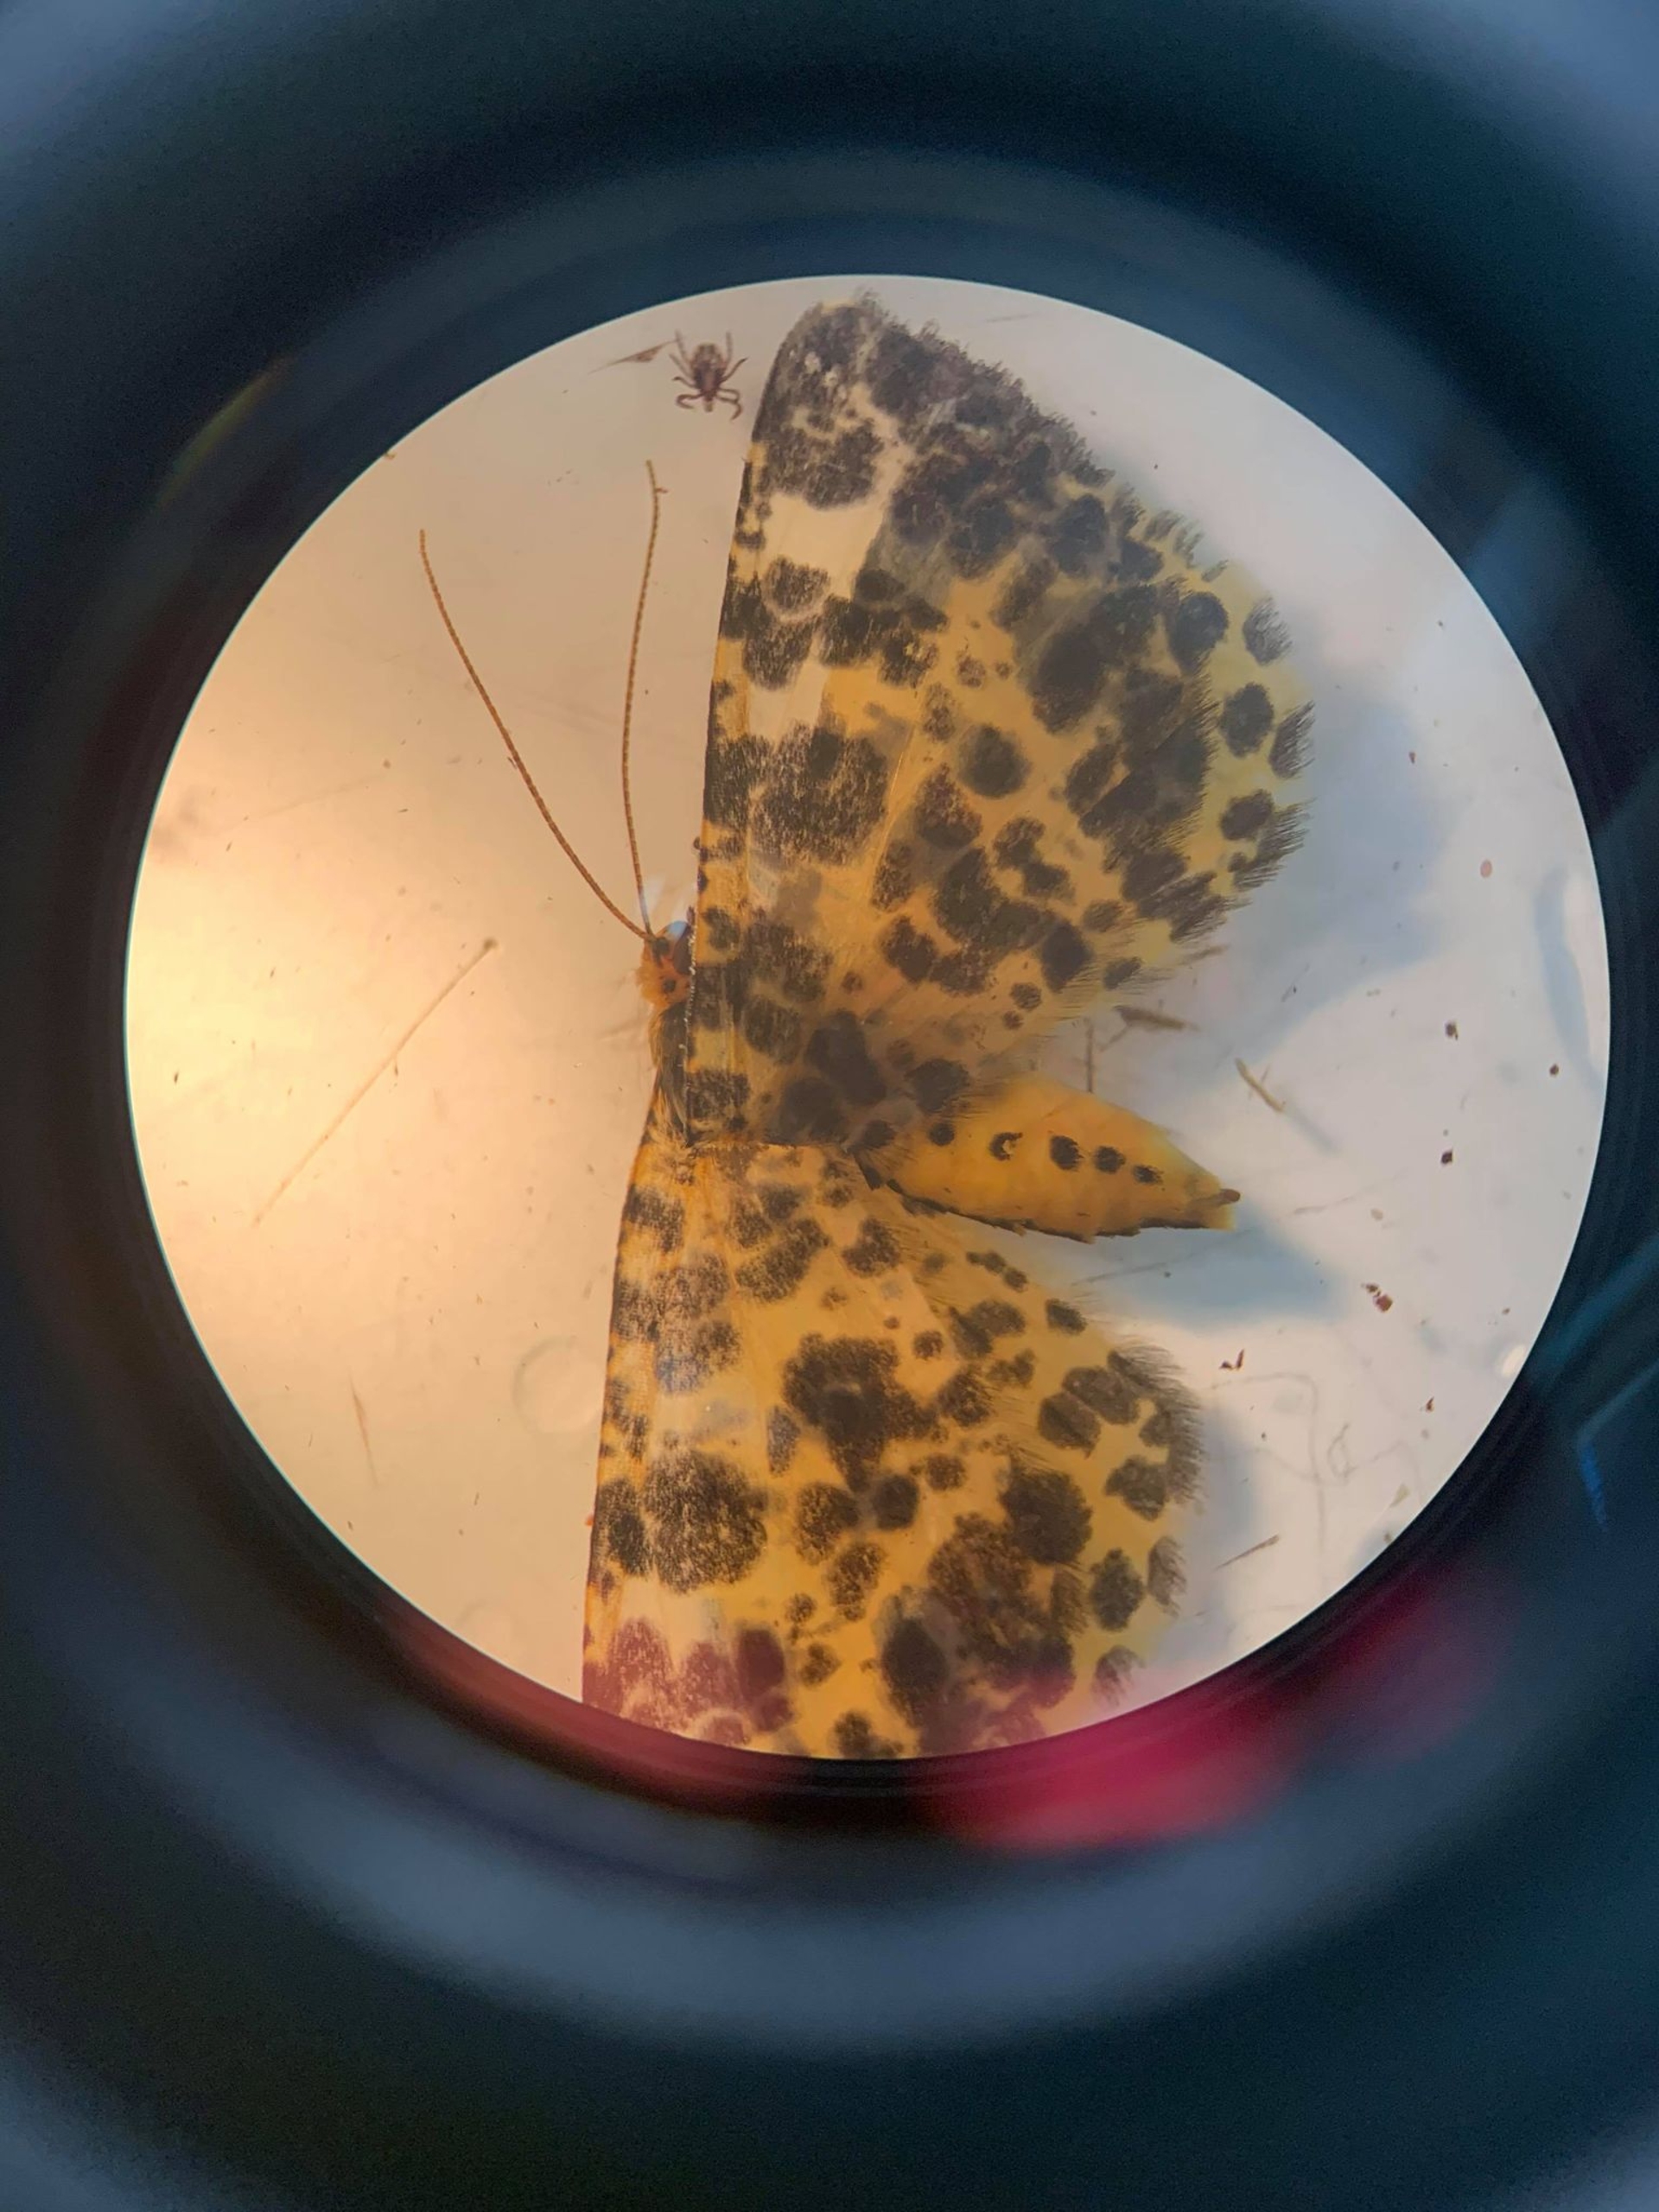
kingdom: Animalia
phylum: Arthropoda
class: Insecta
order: Lepidoptera
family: Geometridae
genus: Pseudopanthera
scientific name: Pseudopanthera macularia
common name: Leopardmåler
